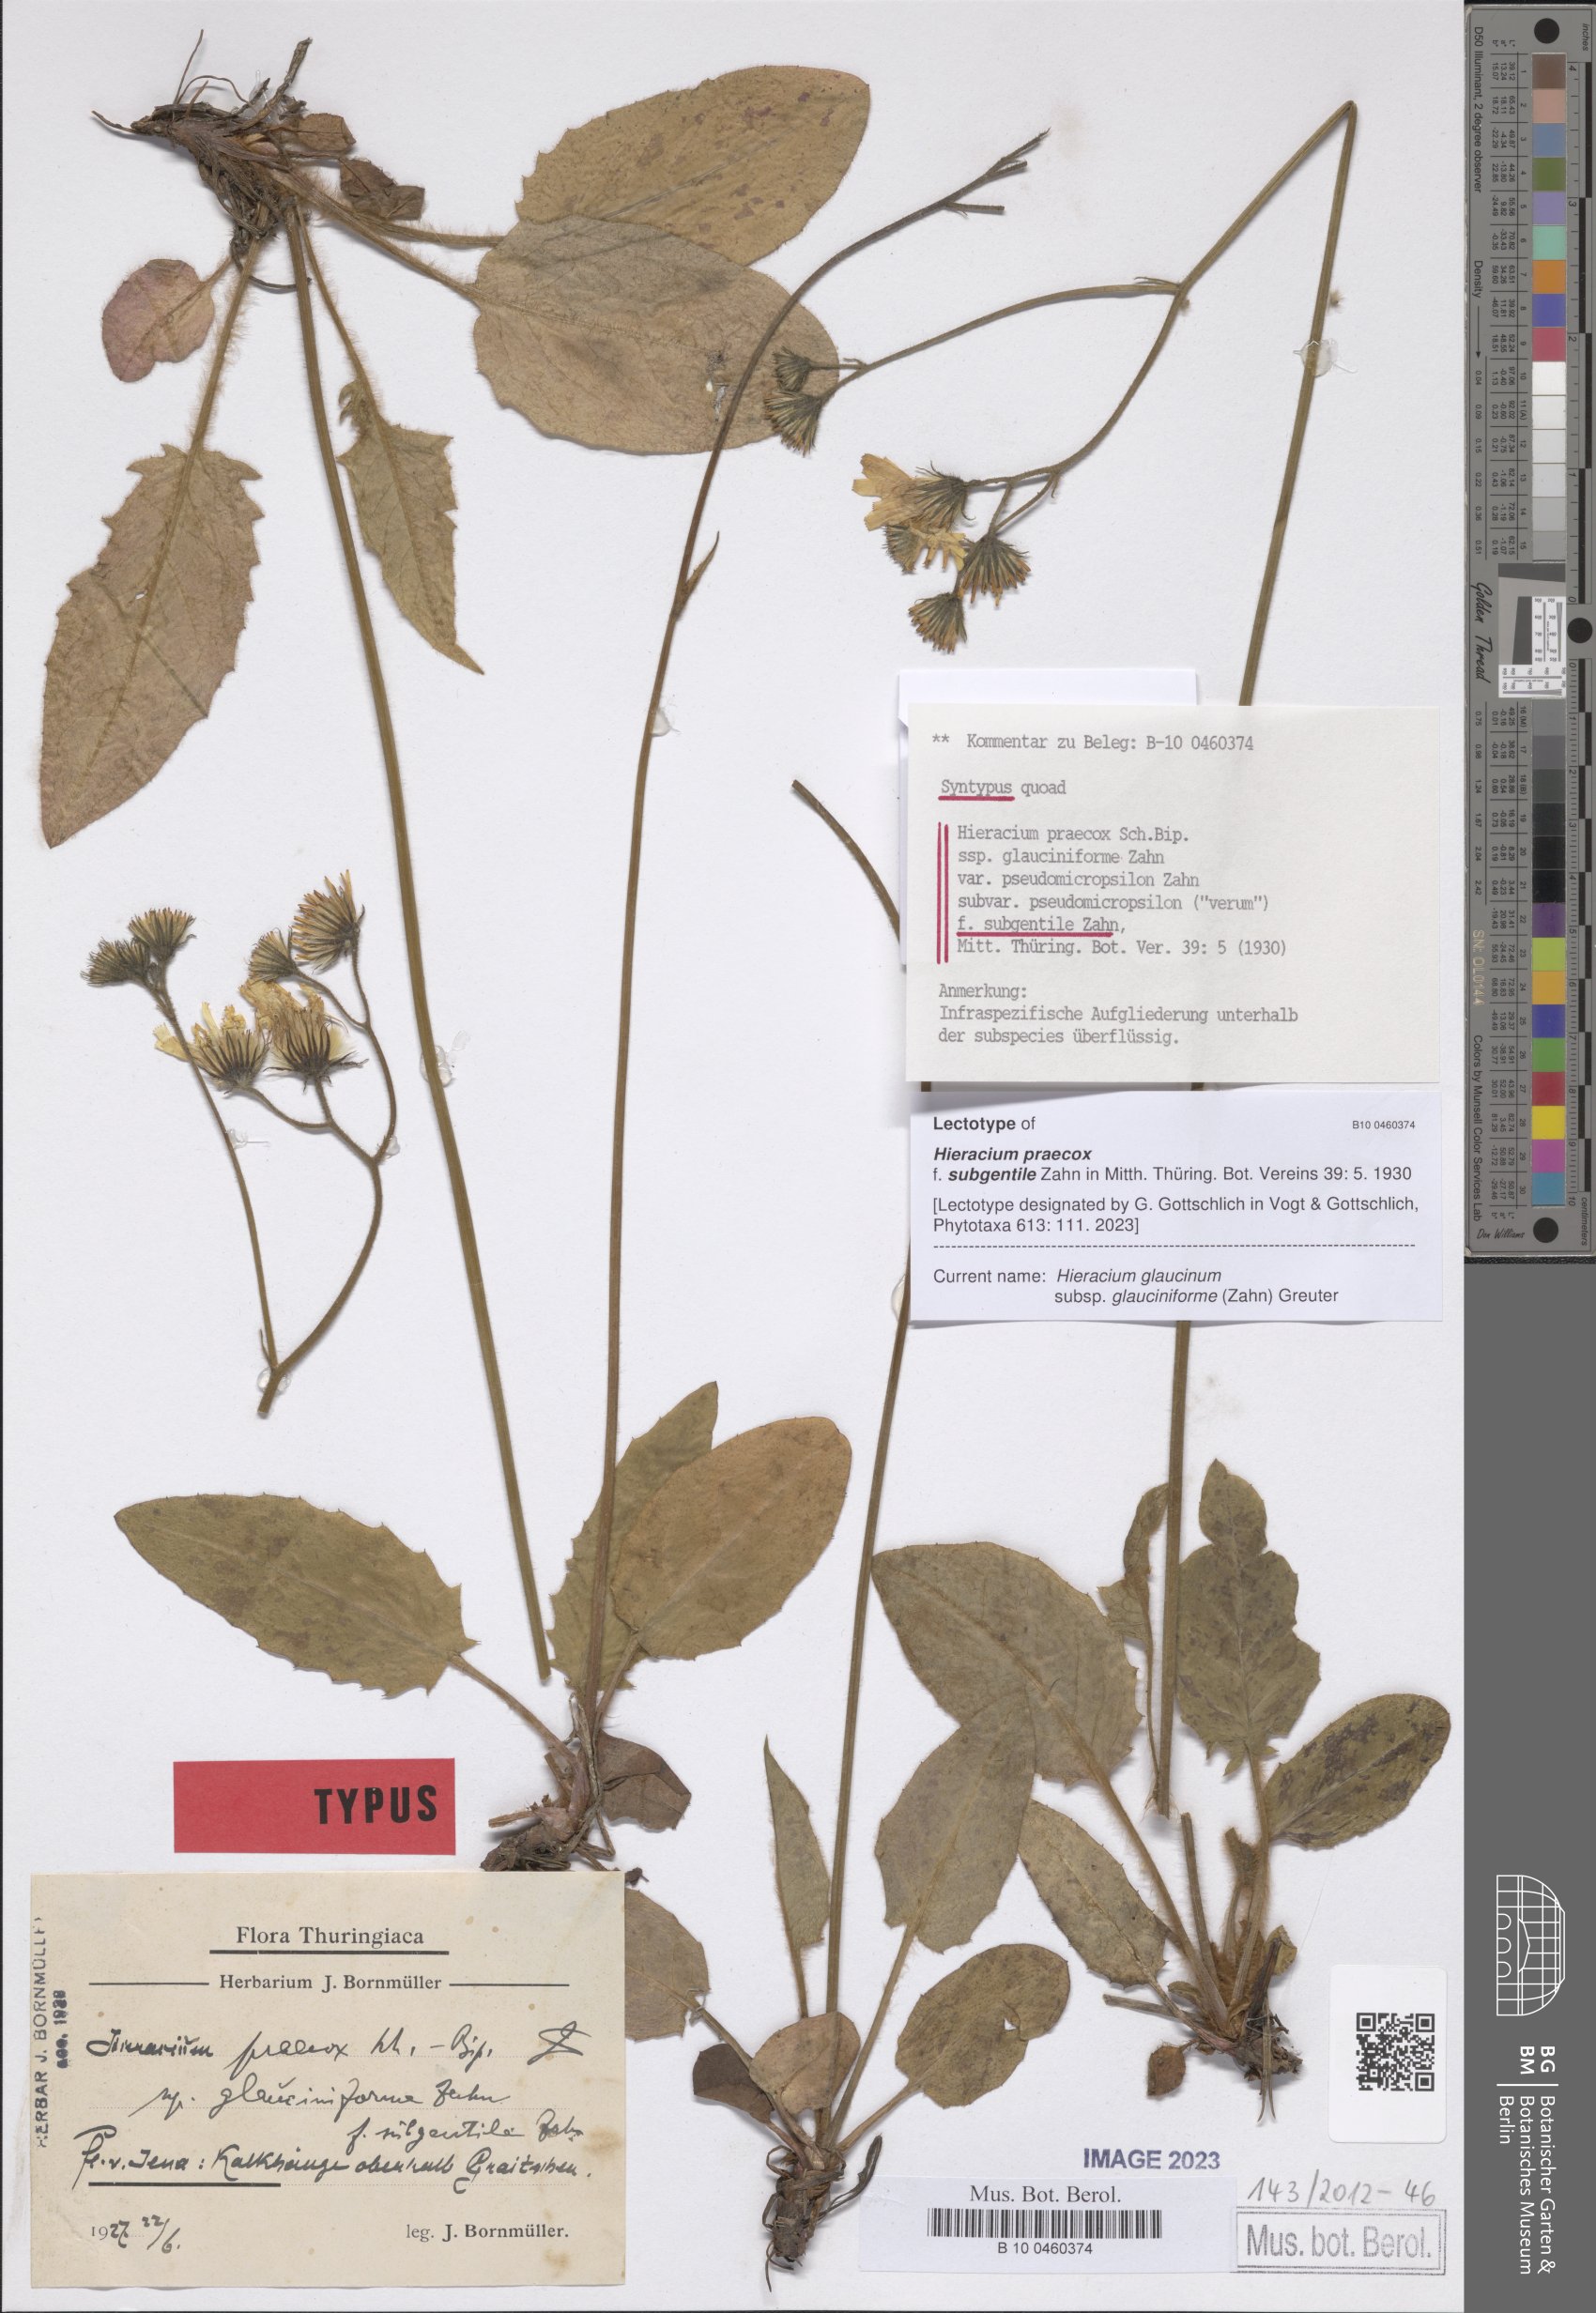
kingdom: Plantae
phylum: Tracheophyta
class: Magnoliopsida
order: Asterales
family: Asteraceae
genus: Hieracium
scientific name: Hieracium praecox
